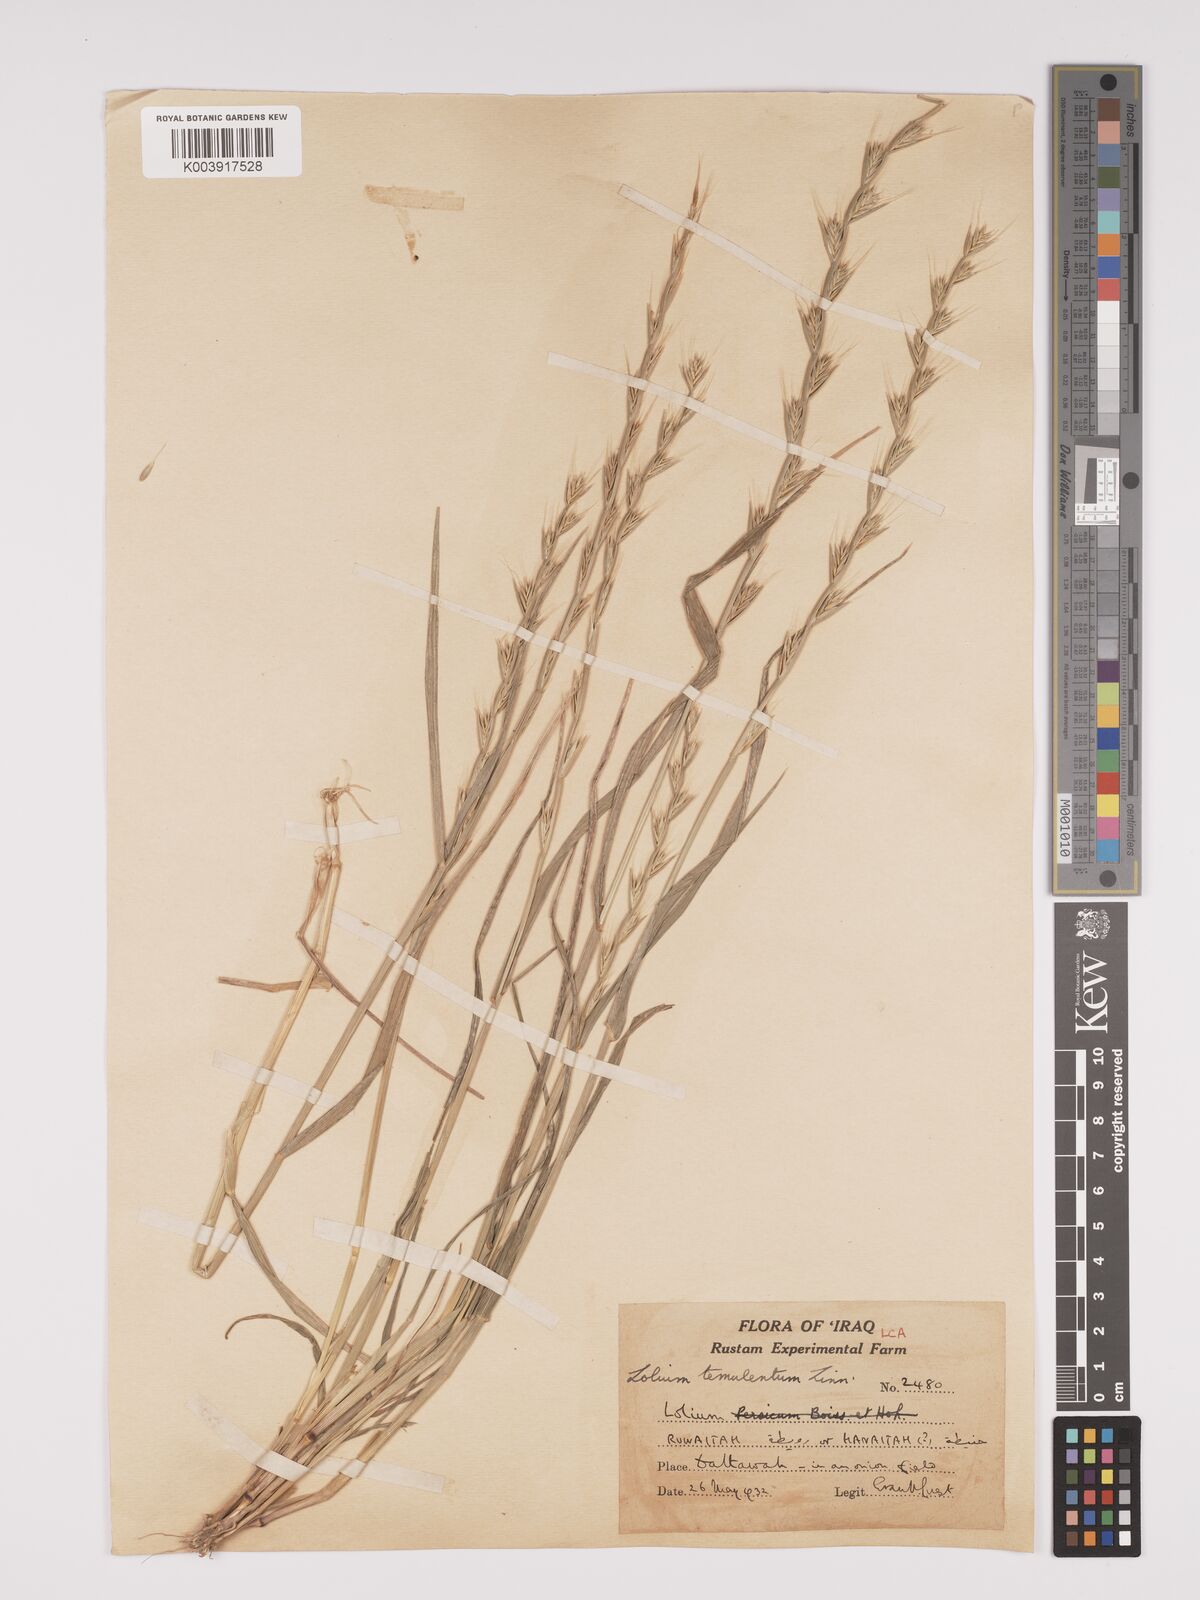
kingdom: Plantae
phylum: Tracheophyta
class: Liliopsida
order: Poales
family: Poaceae
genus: Lolium
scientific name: Lolium temulentum
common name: Darnel
